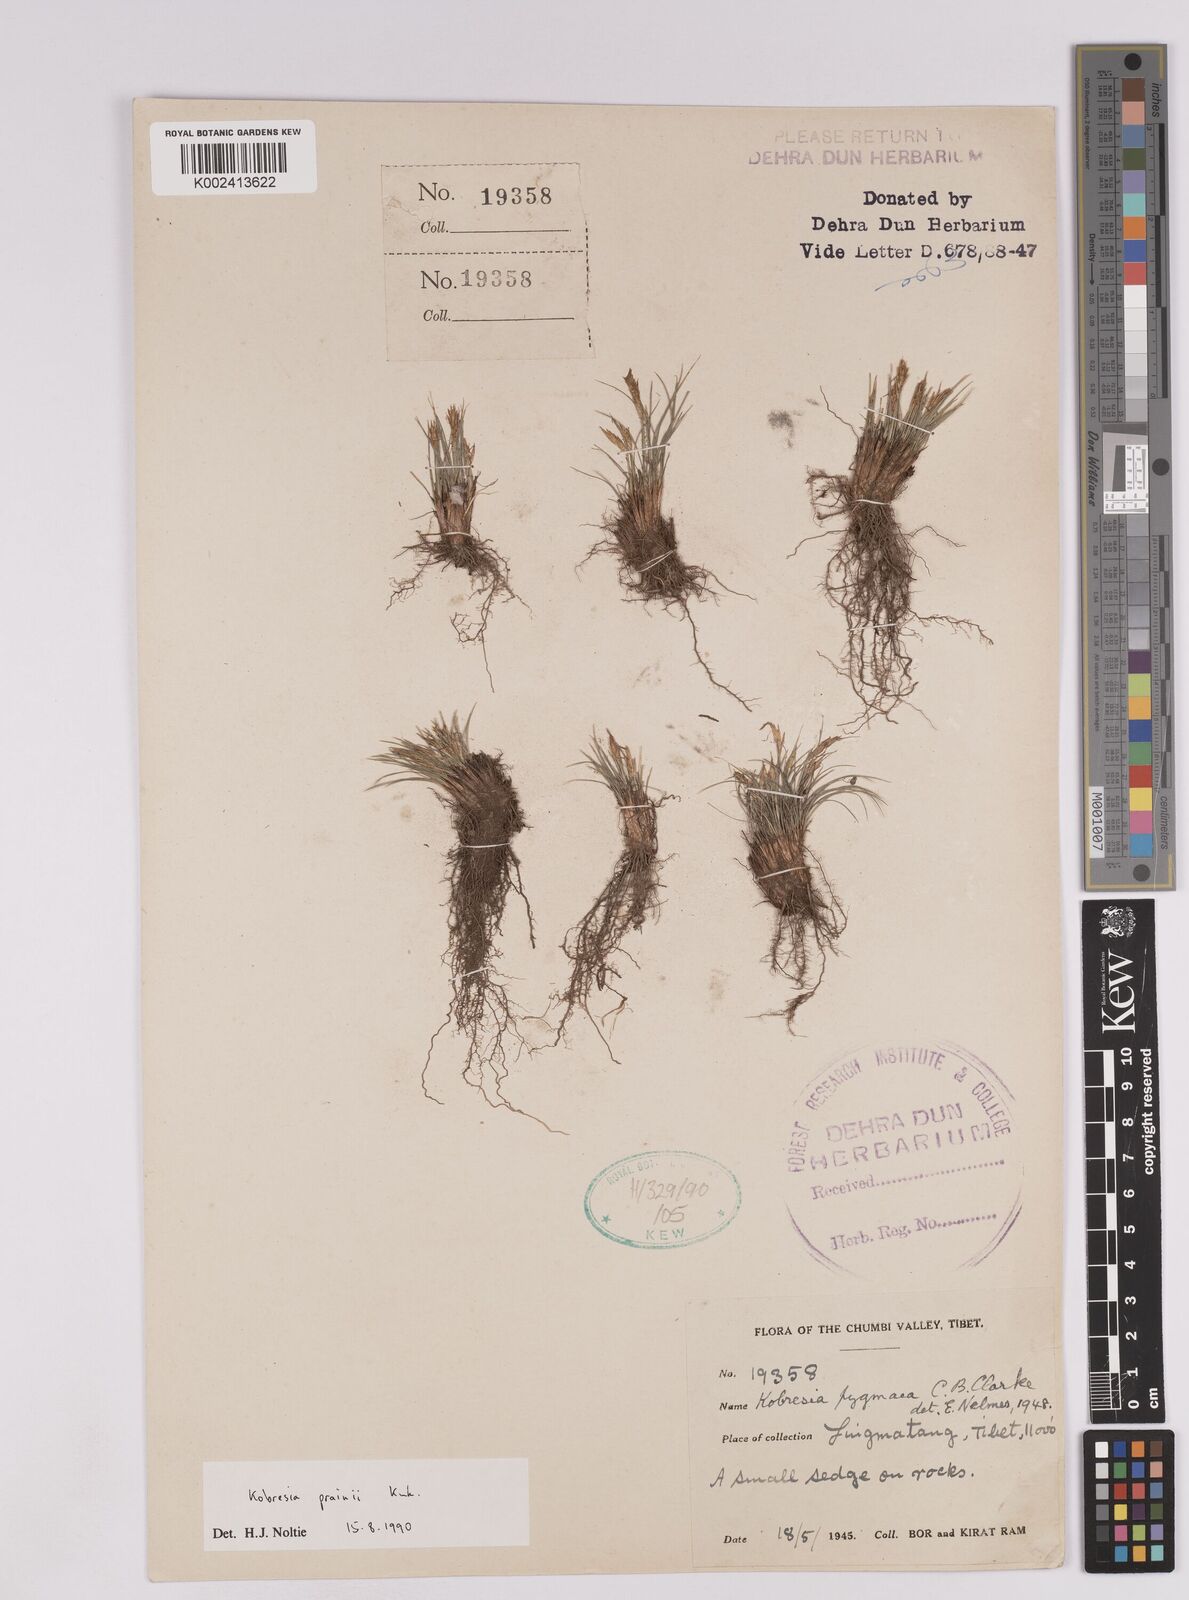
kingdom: Plantae
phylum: Tracheophyta
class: Liliopsida
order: Poales
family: Cyperaceae
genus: Carex
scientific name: Carex bhutanensis
